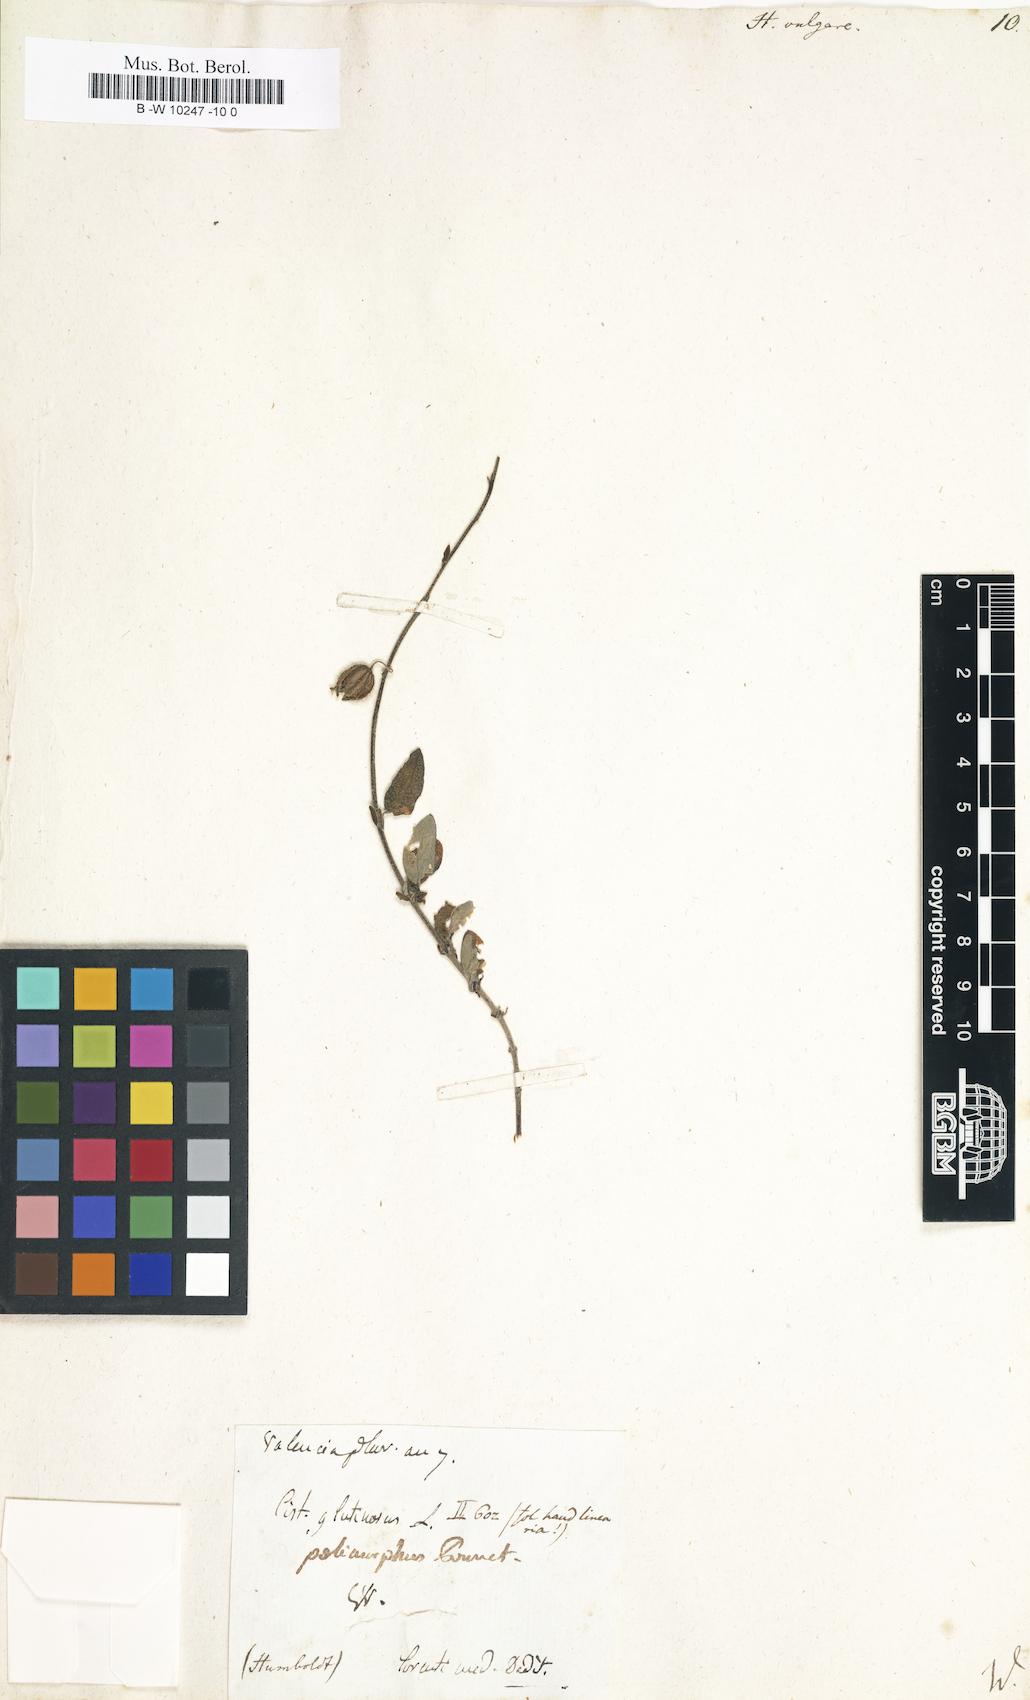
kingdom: Plantae
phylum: Tracheophyta
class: Magnoliopsida
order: Malvales
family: Cistaceae
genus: Helianthemum
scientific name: Helianthemum nummularium
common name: Common rock-rose
